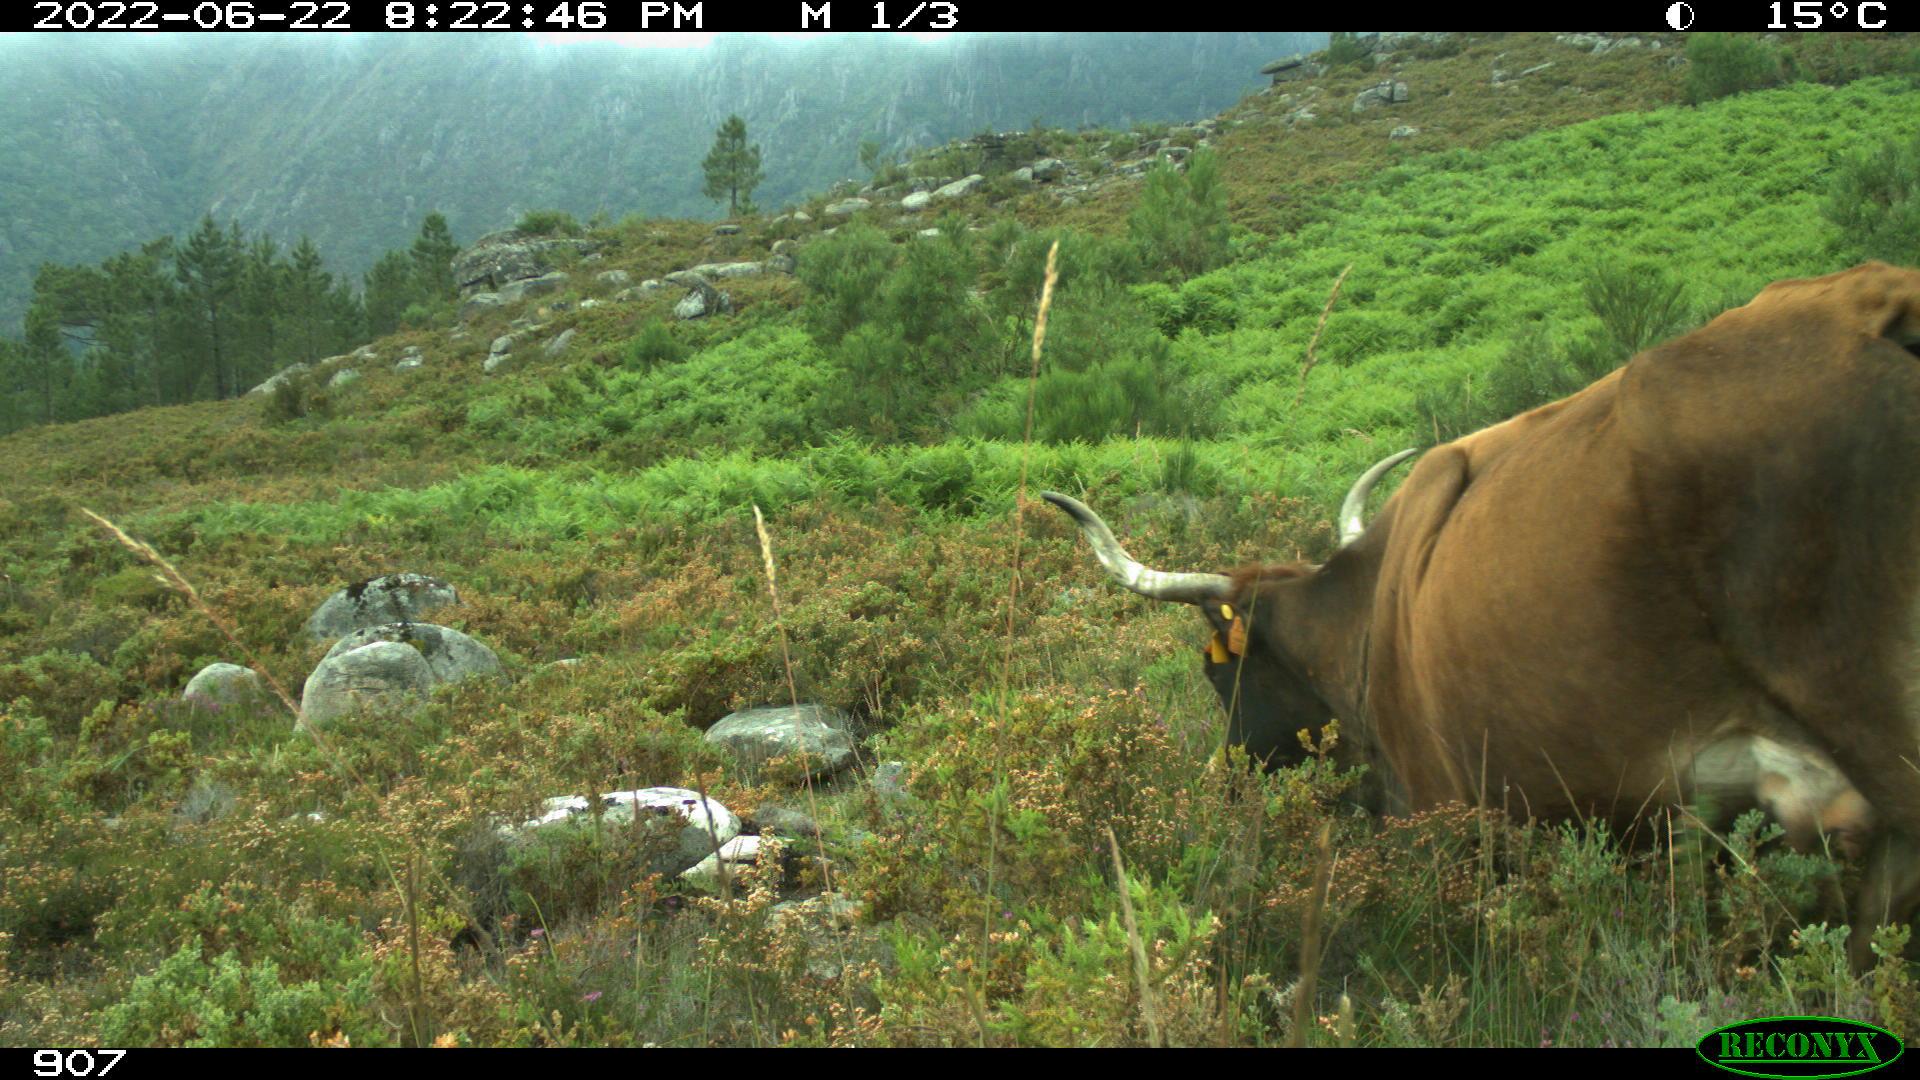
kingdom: Animalia
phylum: Chordata
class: Mammalia
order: Artiodactyla
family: Bovidae
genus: Bos
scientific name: Bos taurus
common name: Domesticated cattle
